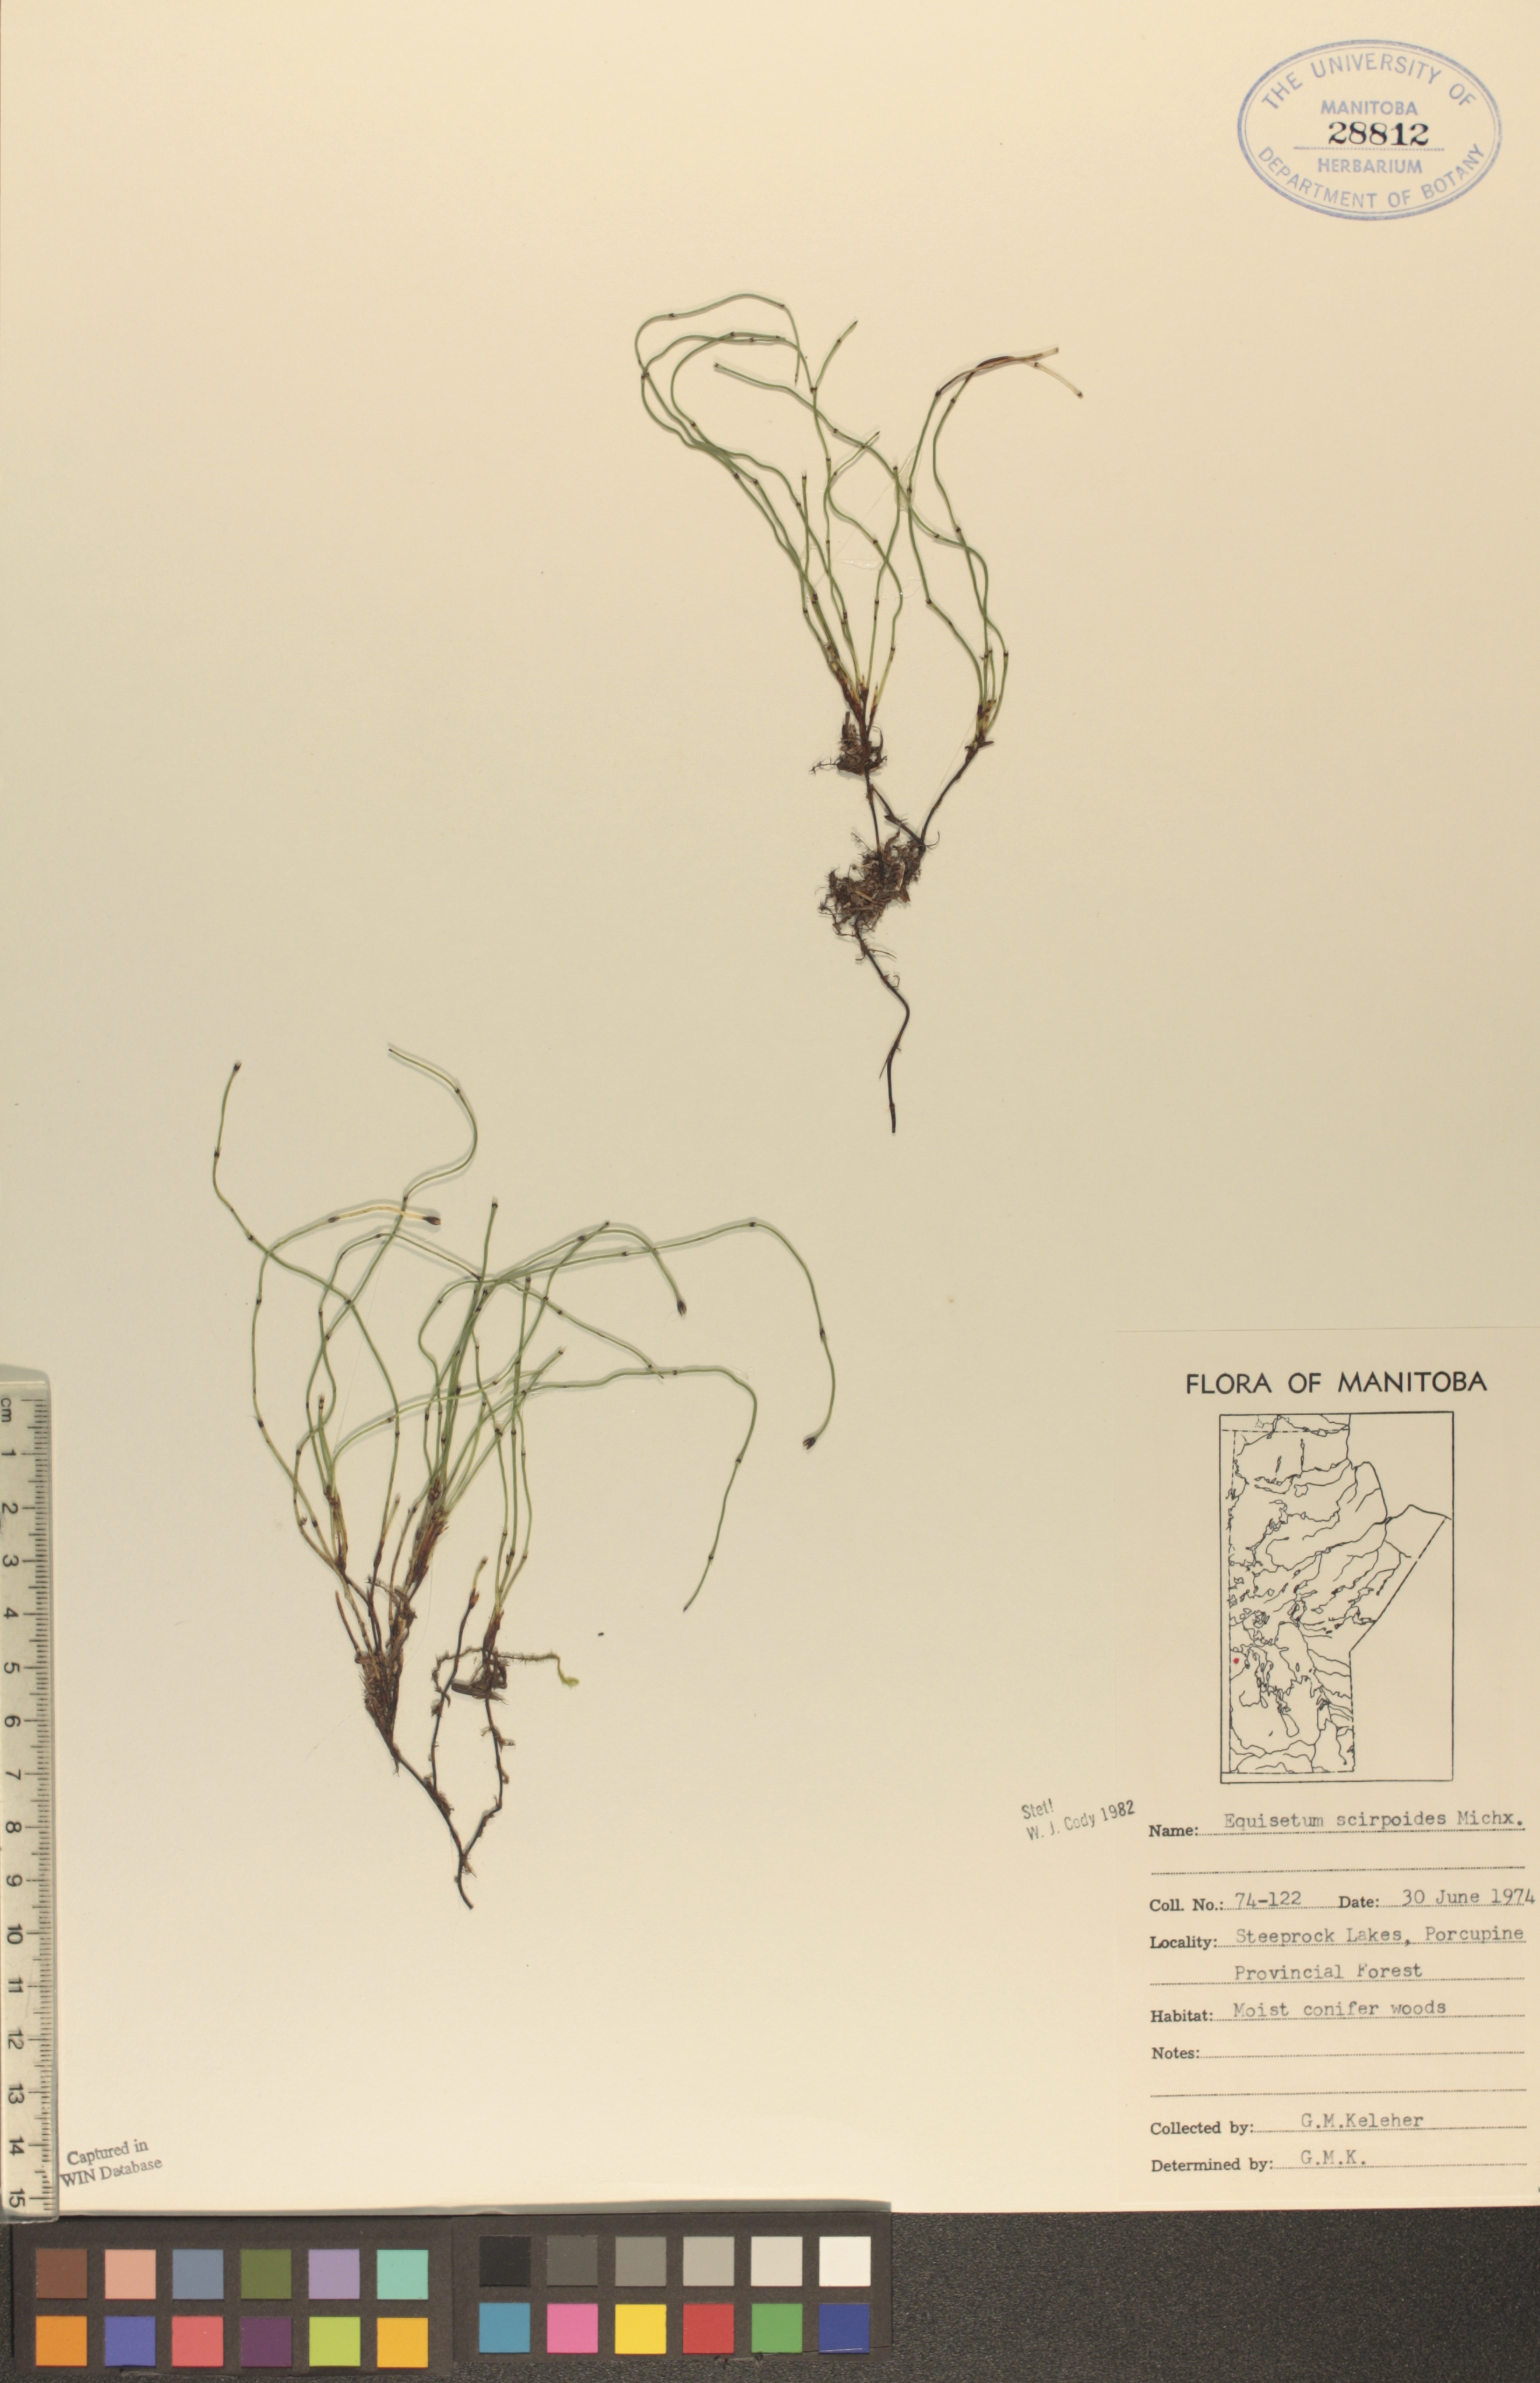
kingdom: Plantae
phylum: Tracheophyta
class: Polypodiopsida
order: Equisetales
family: Equisetaceae
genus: Equisetum
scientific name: Equisetum scirpoides
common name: Delicate horsetail
